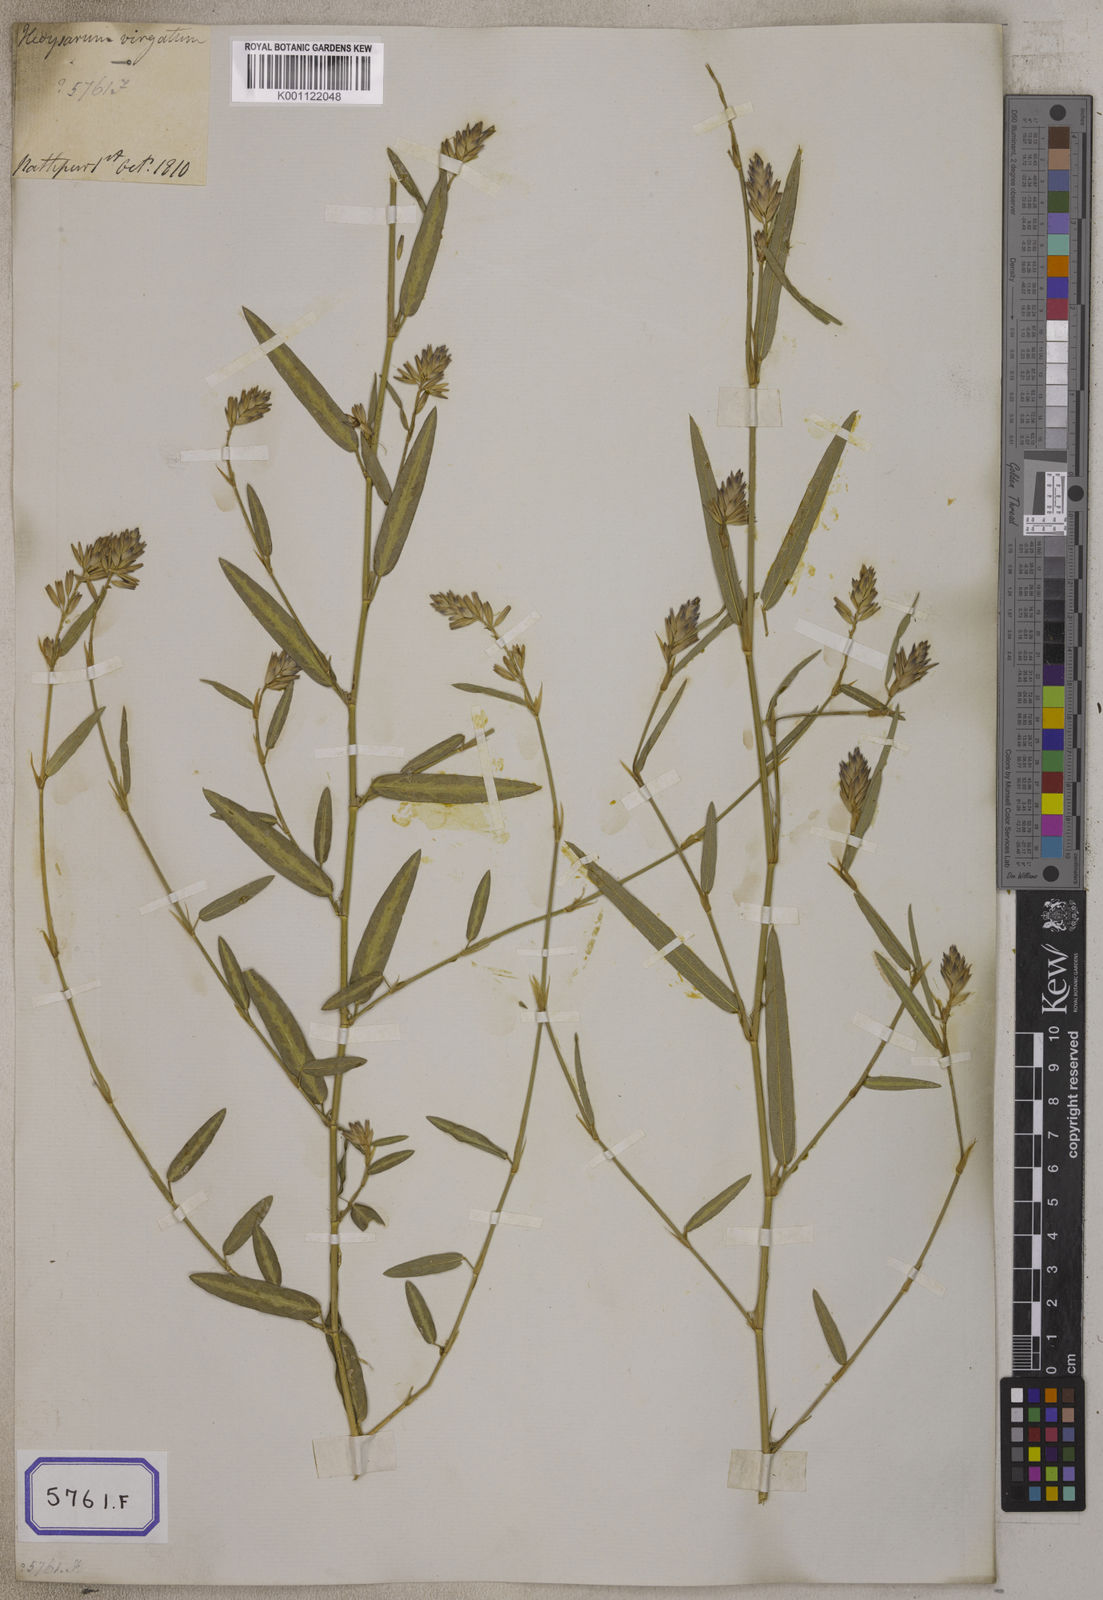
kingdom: Plantae
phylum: Tracheophyta
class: Magnoliopsida
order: Fabales
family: Fabaceae
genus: Alysicarpus
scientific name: Alysicarpus bupleurifolius
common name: Sweet alys
